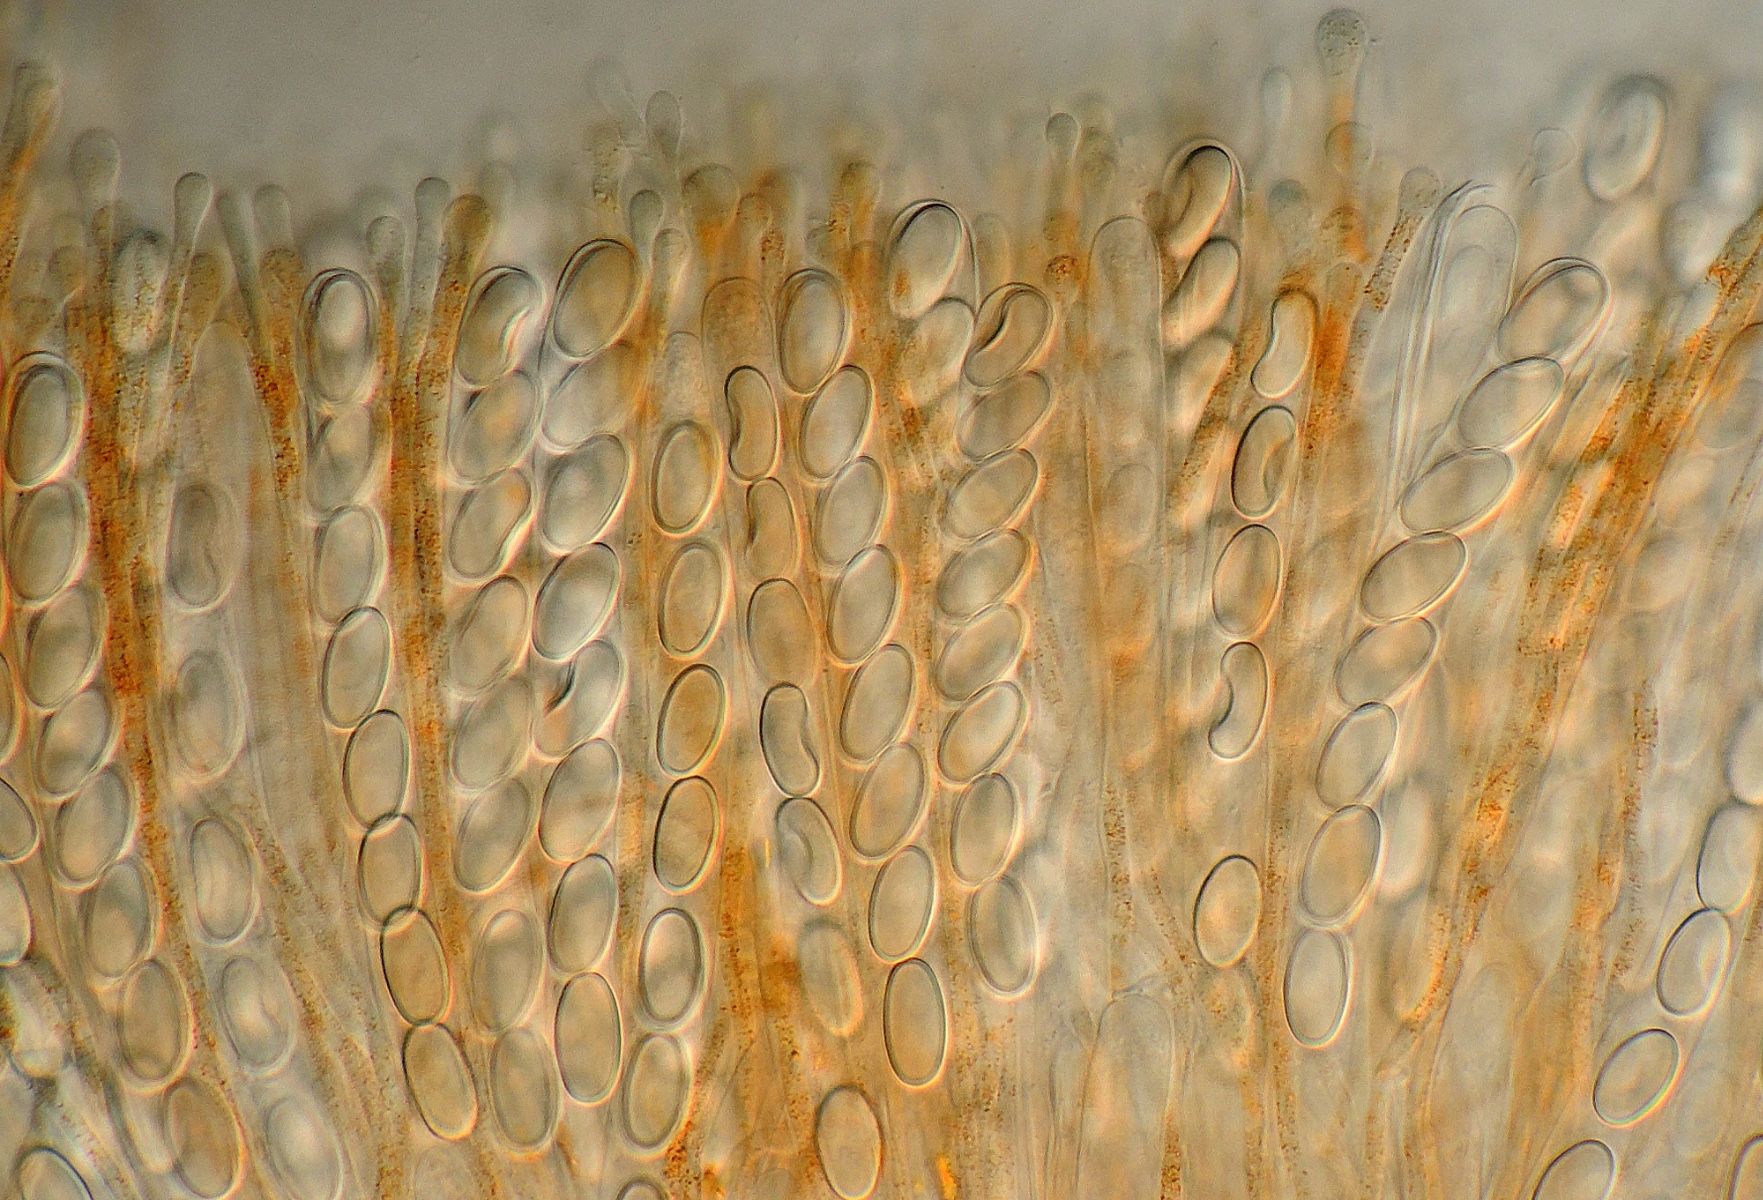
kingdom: Fungi
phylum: Ascomycota
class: Pezizomycetes
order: Pezizales
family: Pyronemataceae
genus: Pyropyxis
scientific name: Pyropyxis rubra
